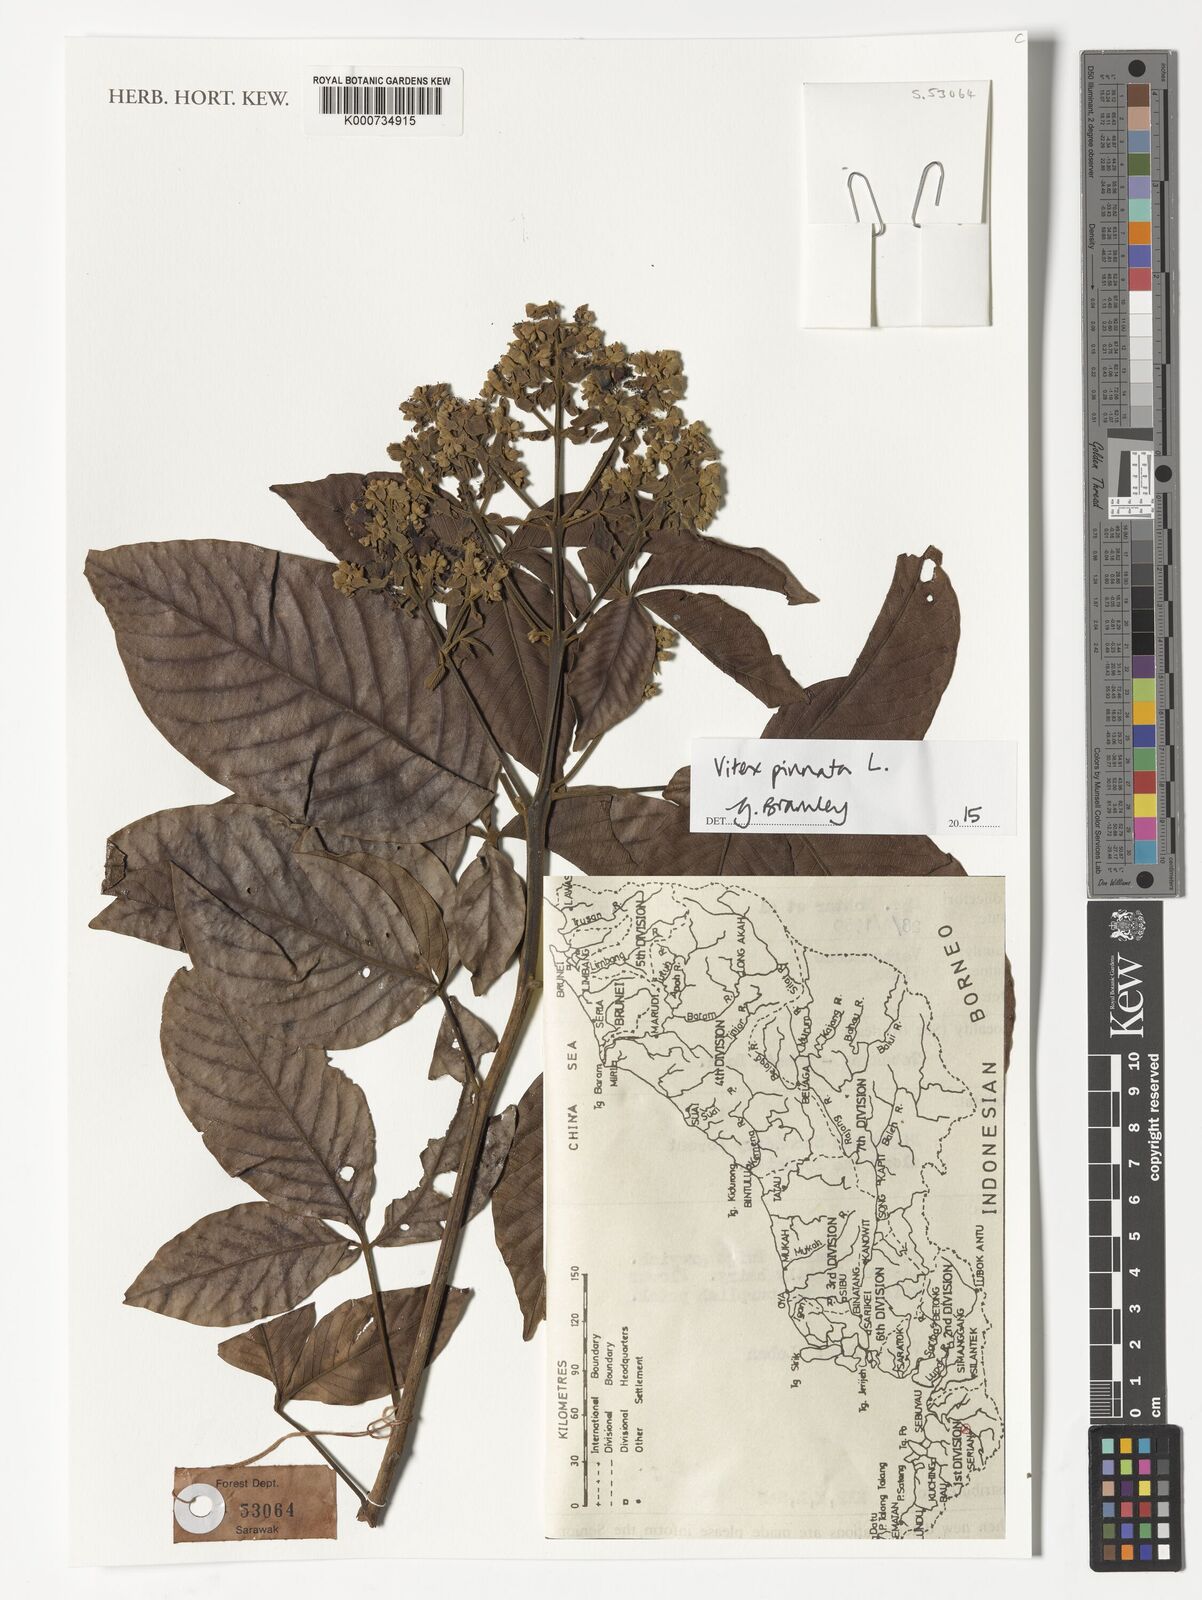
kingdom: Plantae
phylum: Tracheophyta
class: Magnoliopsida
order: Lamiales
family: Lamiaceae
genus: Vitex
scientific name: Vitex pinnata
